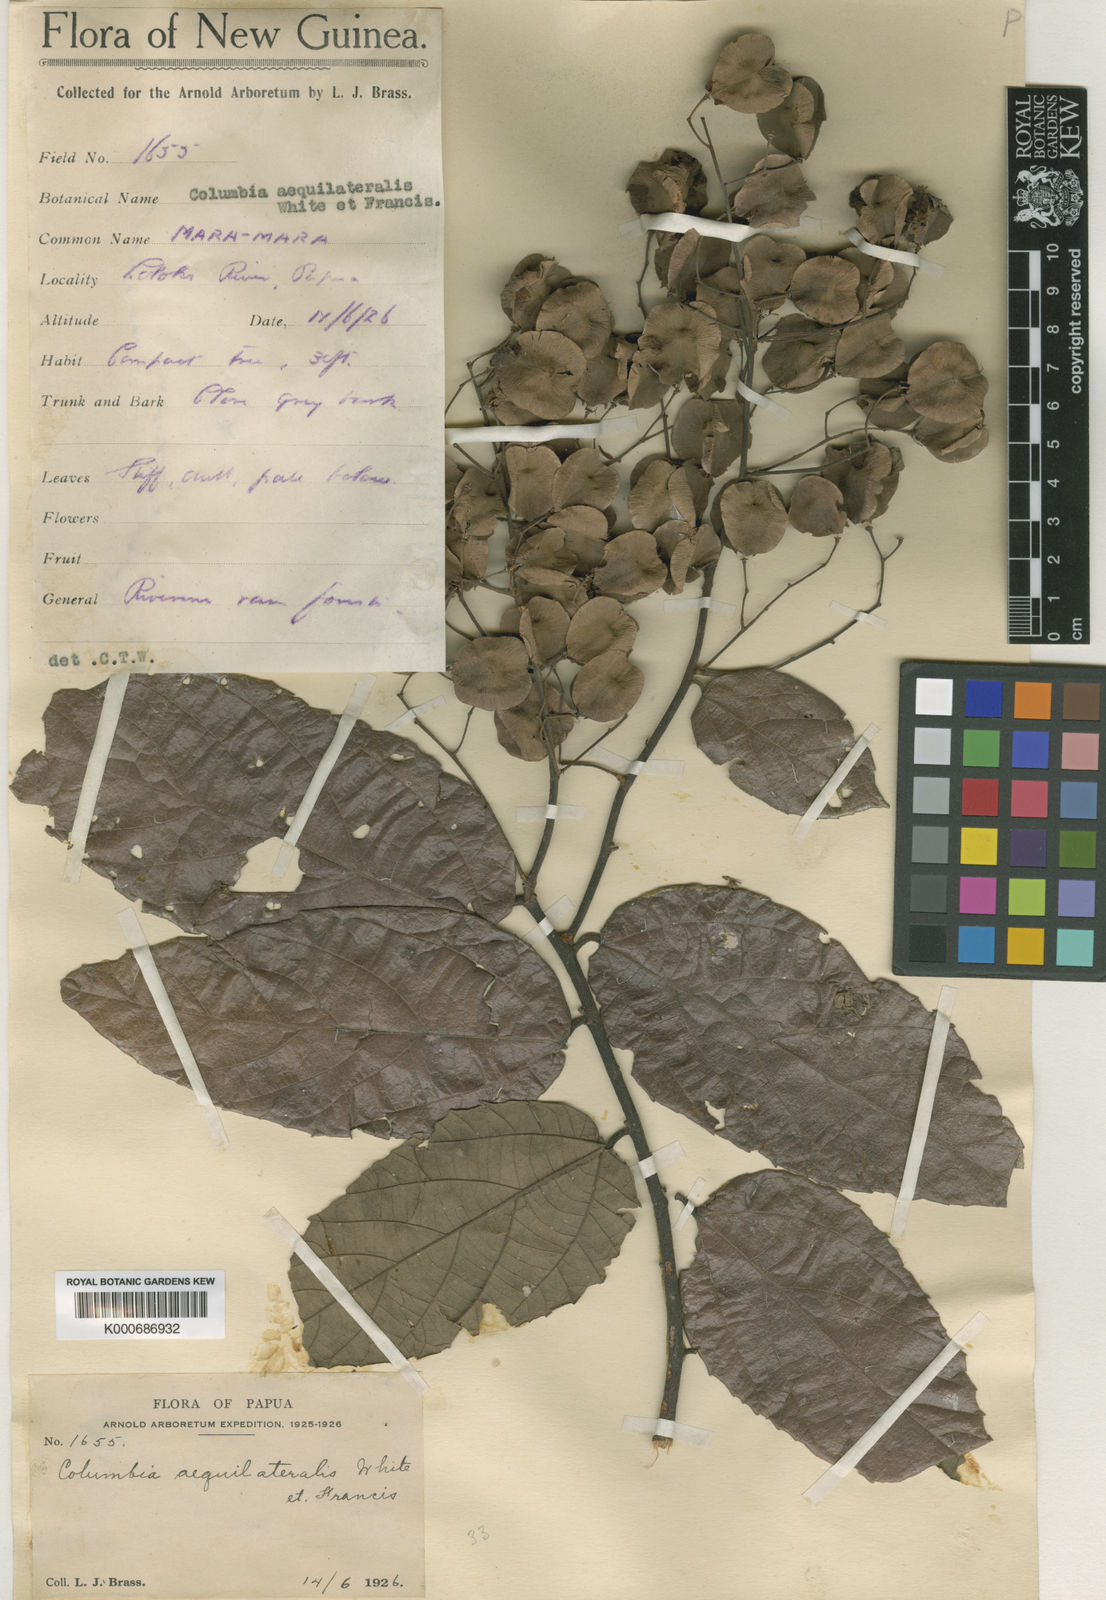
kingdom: Plantae
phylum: Tracheophyta
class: Magnoliopsida
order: Malvales
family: Malvaceae
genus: Colona
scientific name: Colona aequilateralis
